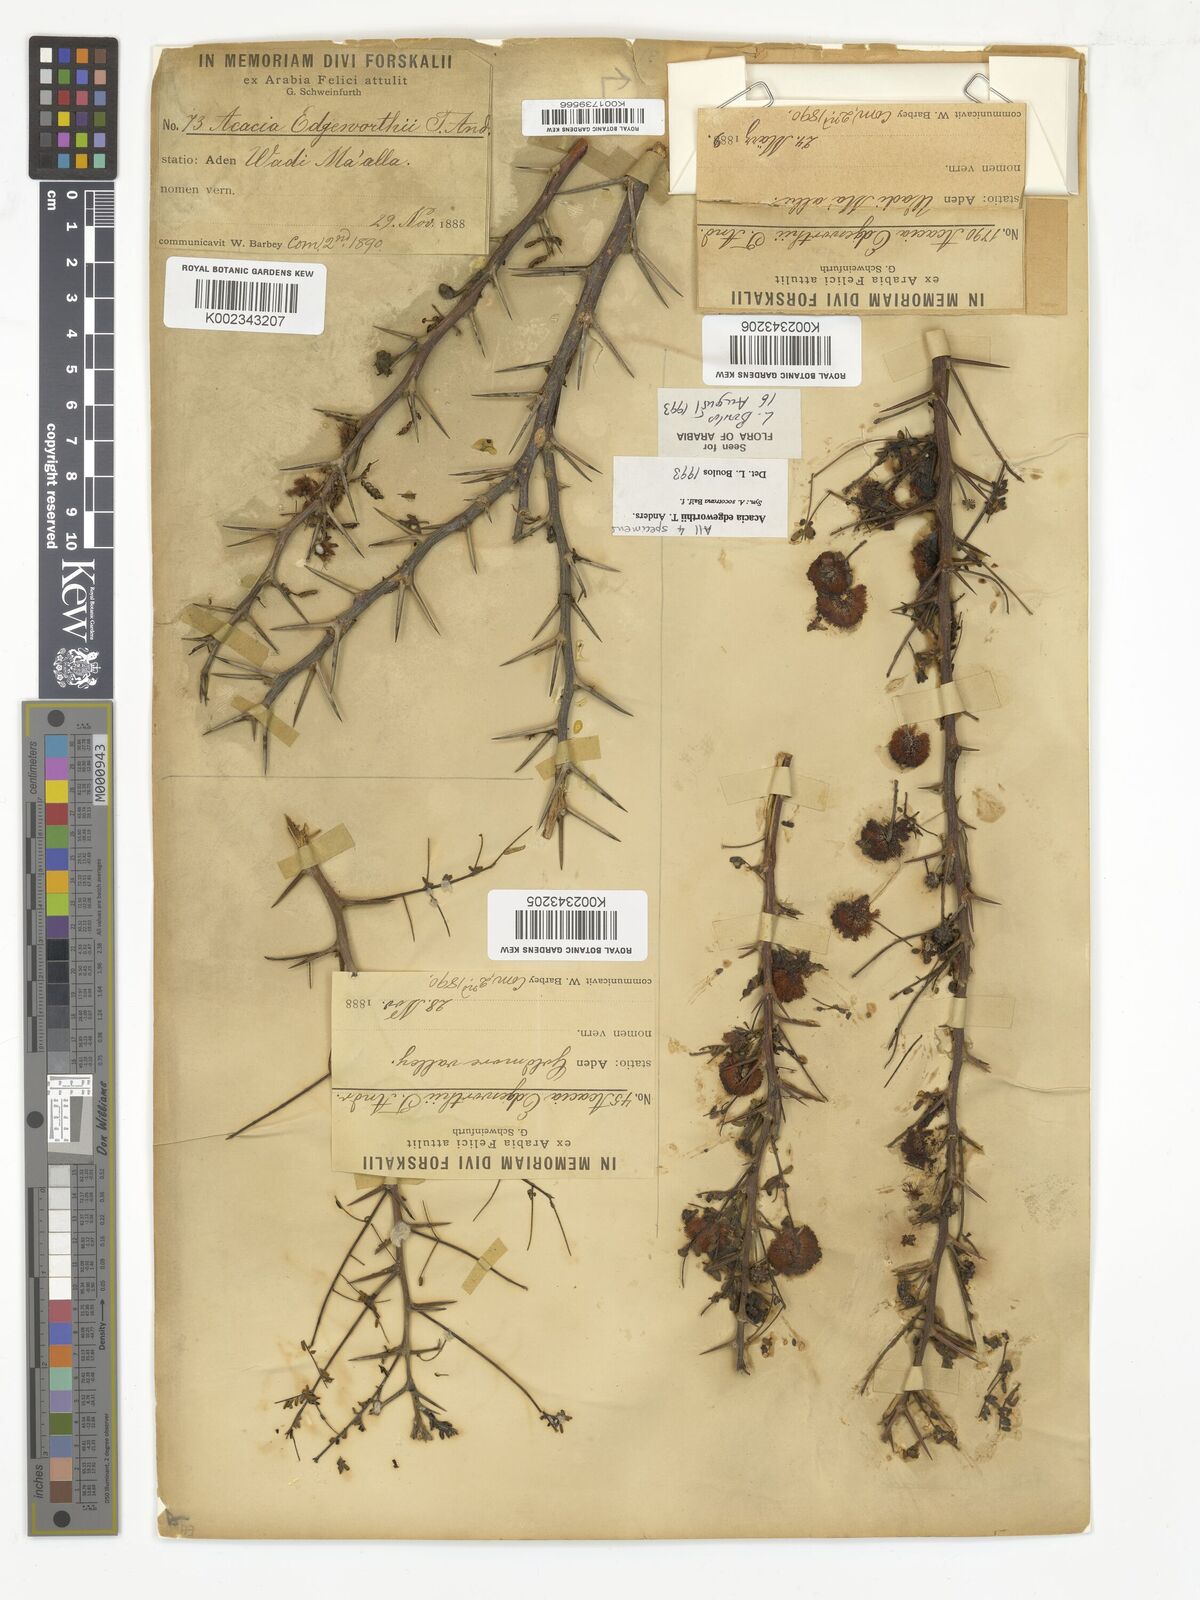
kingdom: Plantae
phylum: Tracheophyta
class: Magnoliopsida
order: Fabales
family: Fabaceae
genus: Vachellia
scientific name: Vachellia edgeworthii
